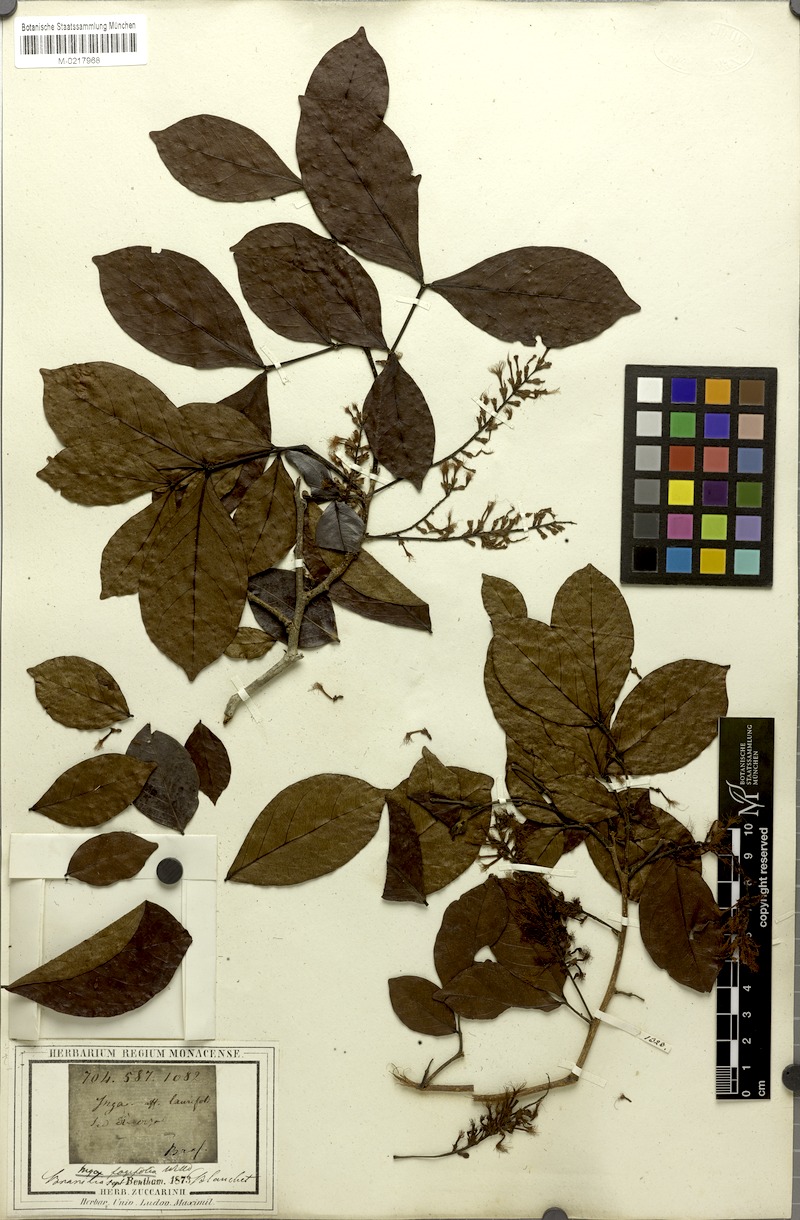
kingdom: Plantae
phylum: Tracheophyta
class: Magnoliopsida
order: Fabales
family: Fabaceae
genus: Inga
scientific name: Inga laurina
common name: Red wood
